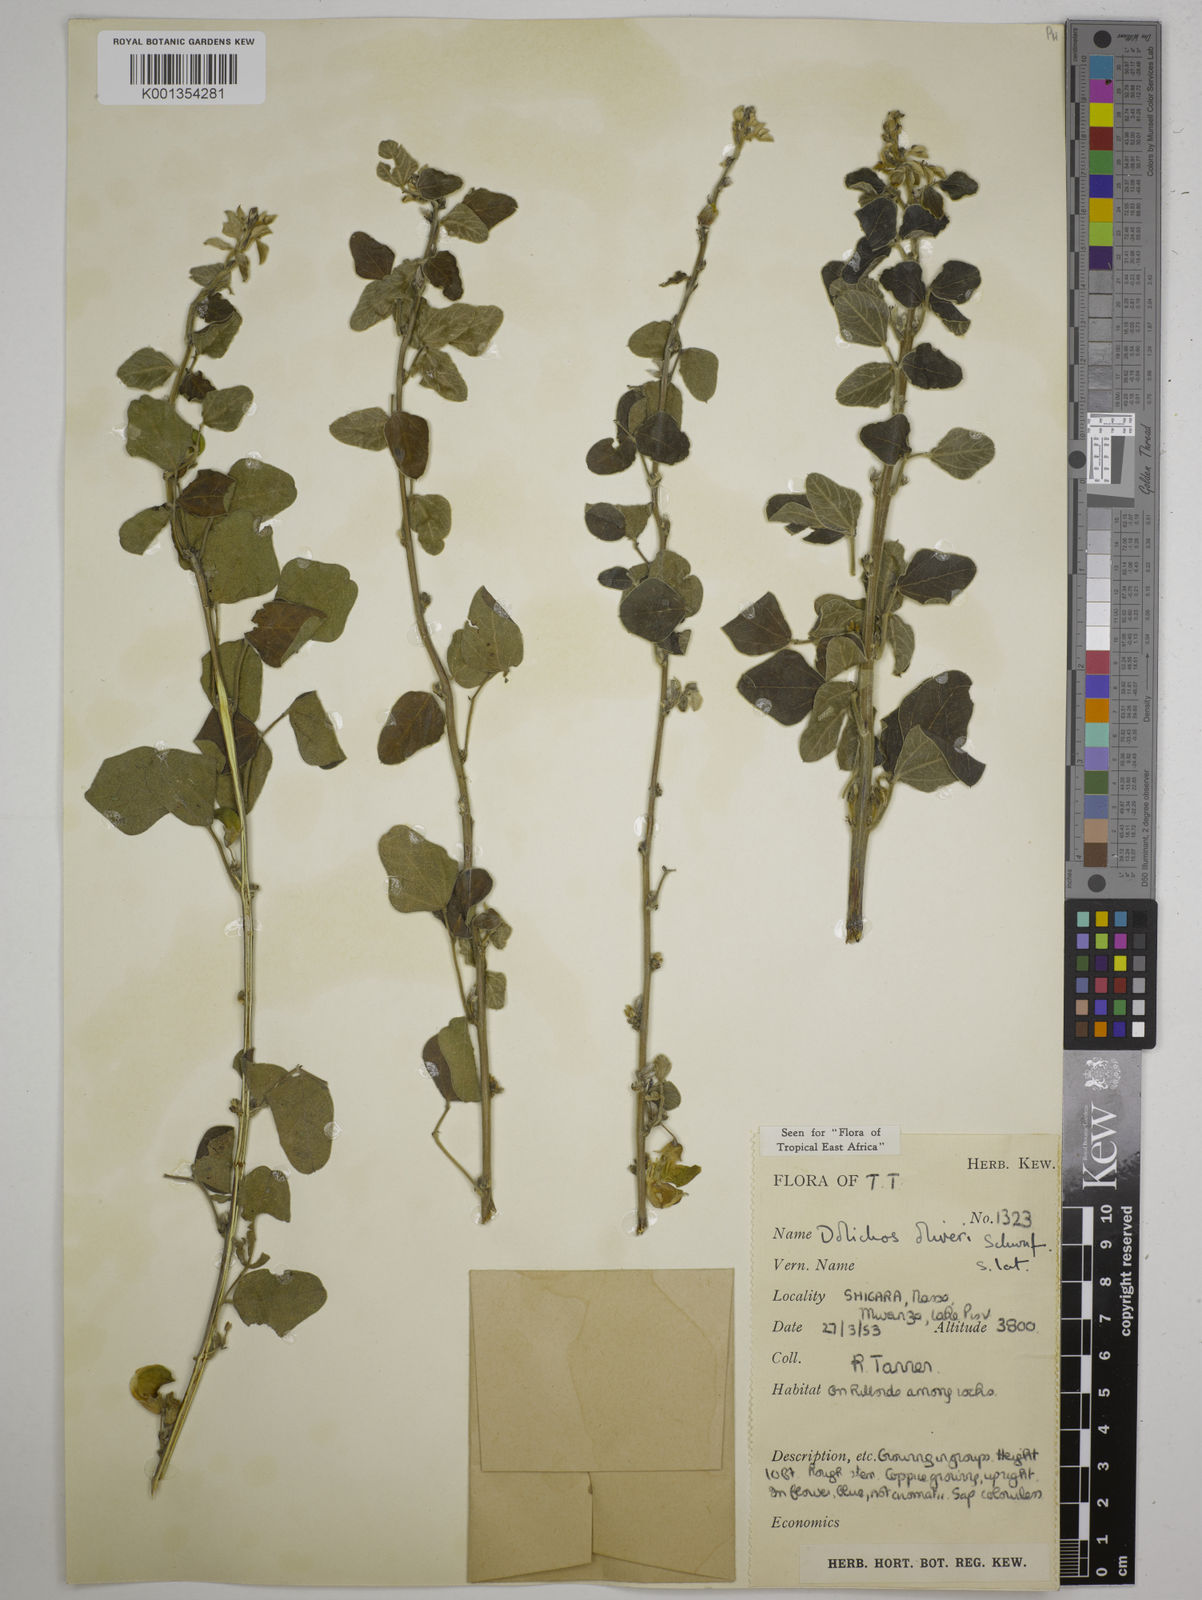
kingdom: Plantae
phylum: Tracheophyta
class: Magnoliopsida
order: Fabales
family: Fabaceae
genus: Dolichos
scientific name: Dolichos oliveri
